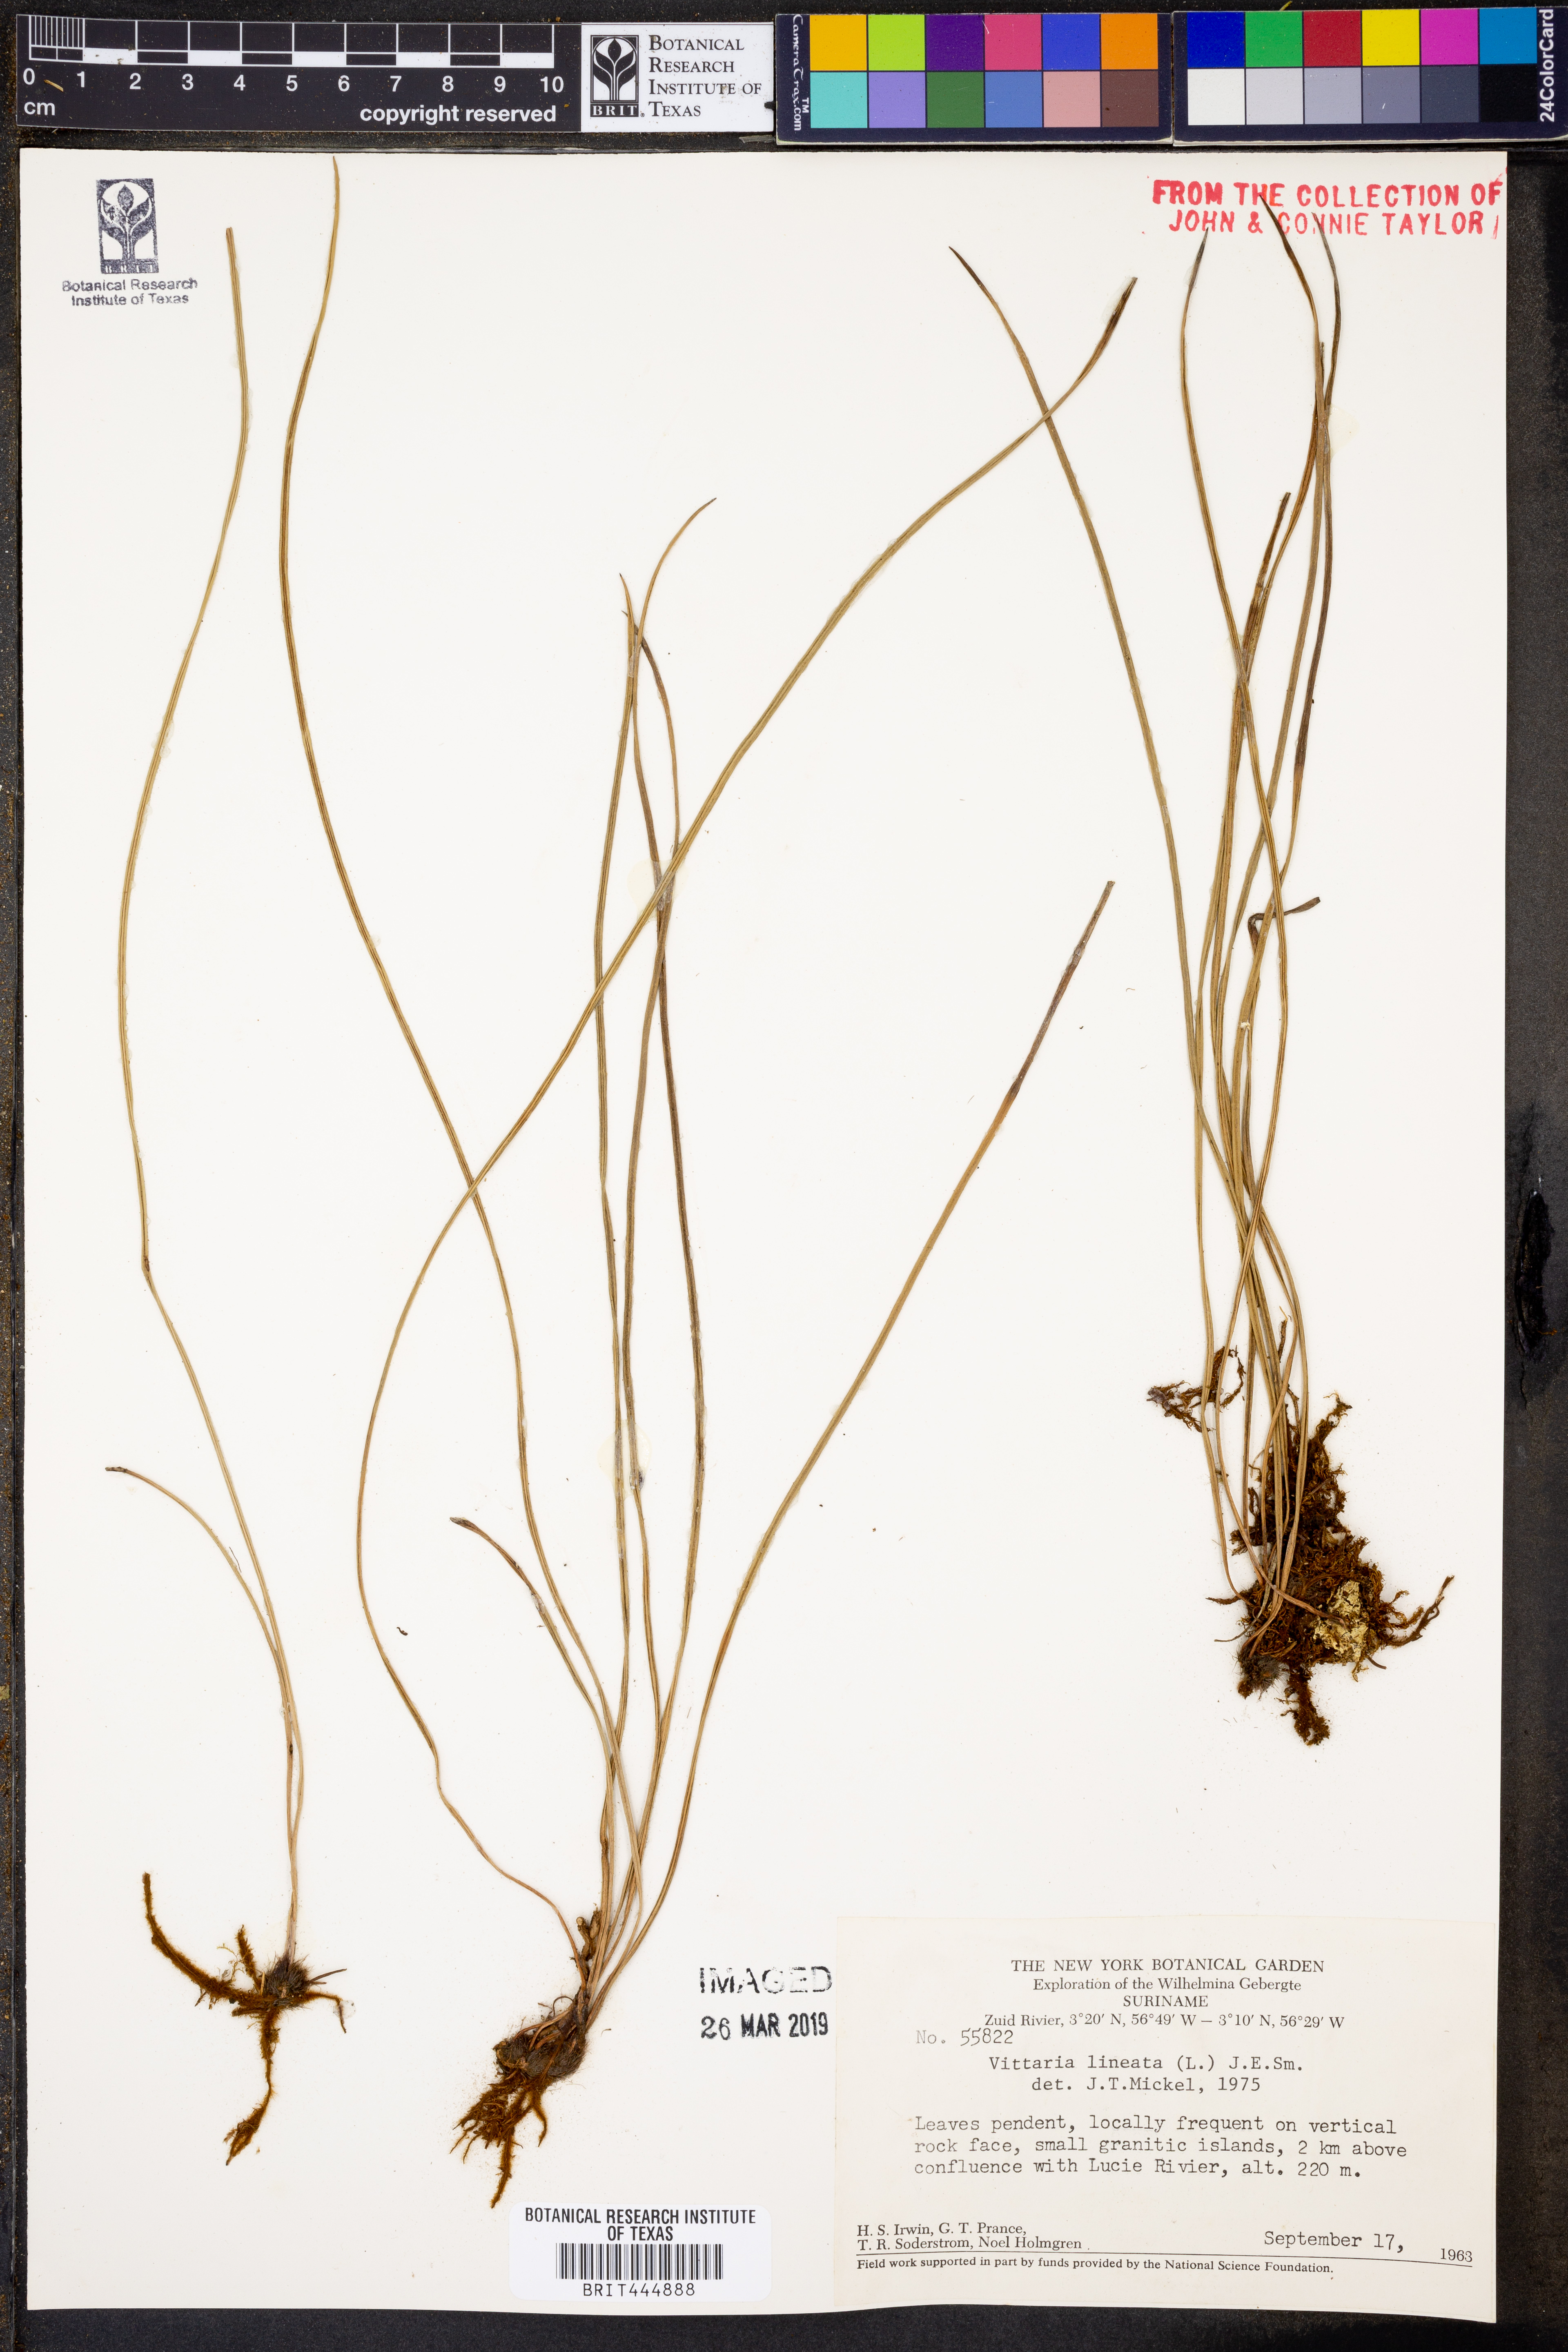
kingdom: Plantae
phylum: Tracheophyta
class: Polypodiopsida
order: Polypodiales
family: Pteridaceae
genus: Vittaria
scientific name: Vittaria lineata
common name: Shoestring fern
